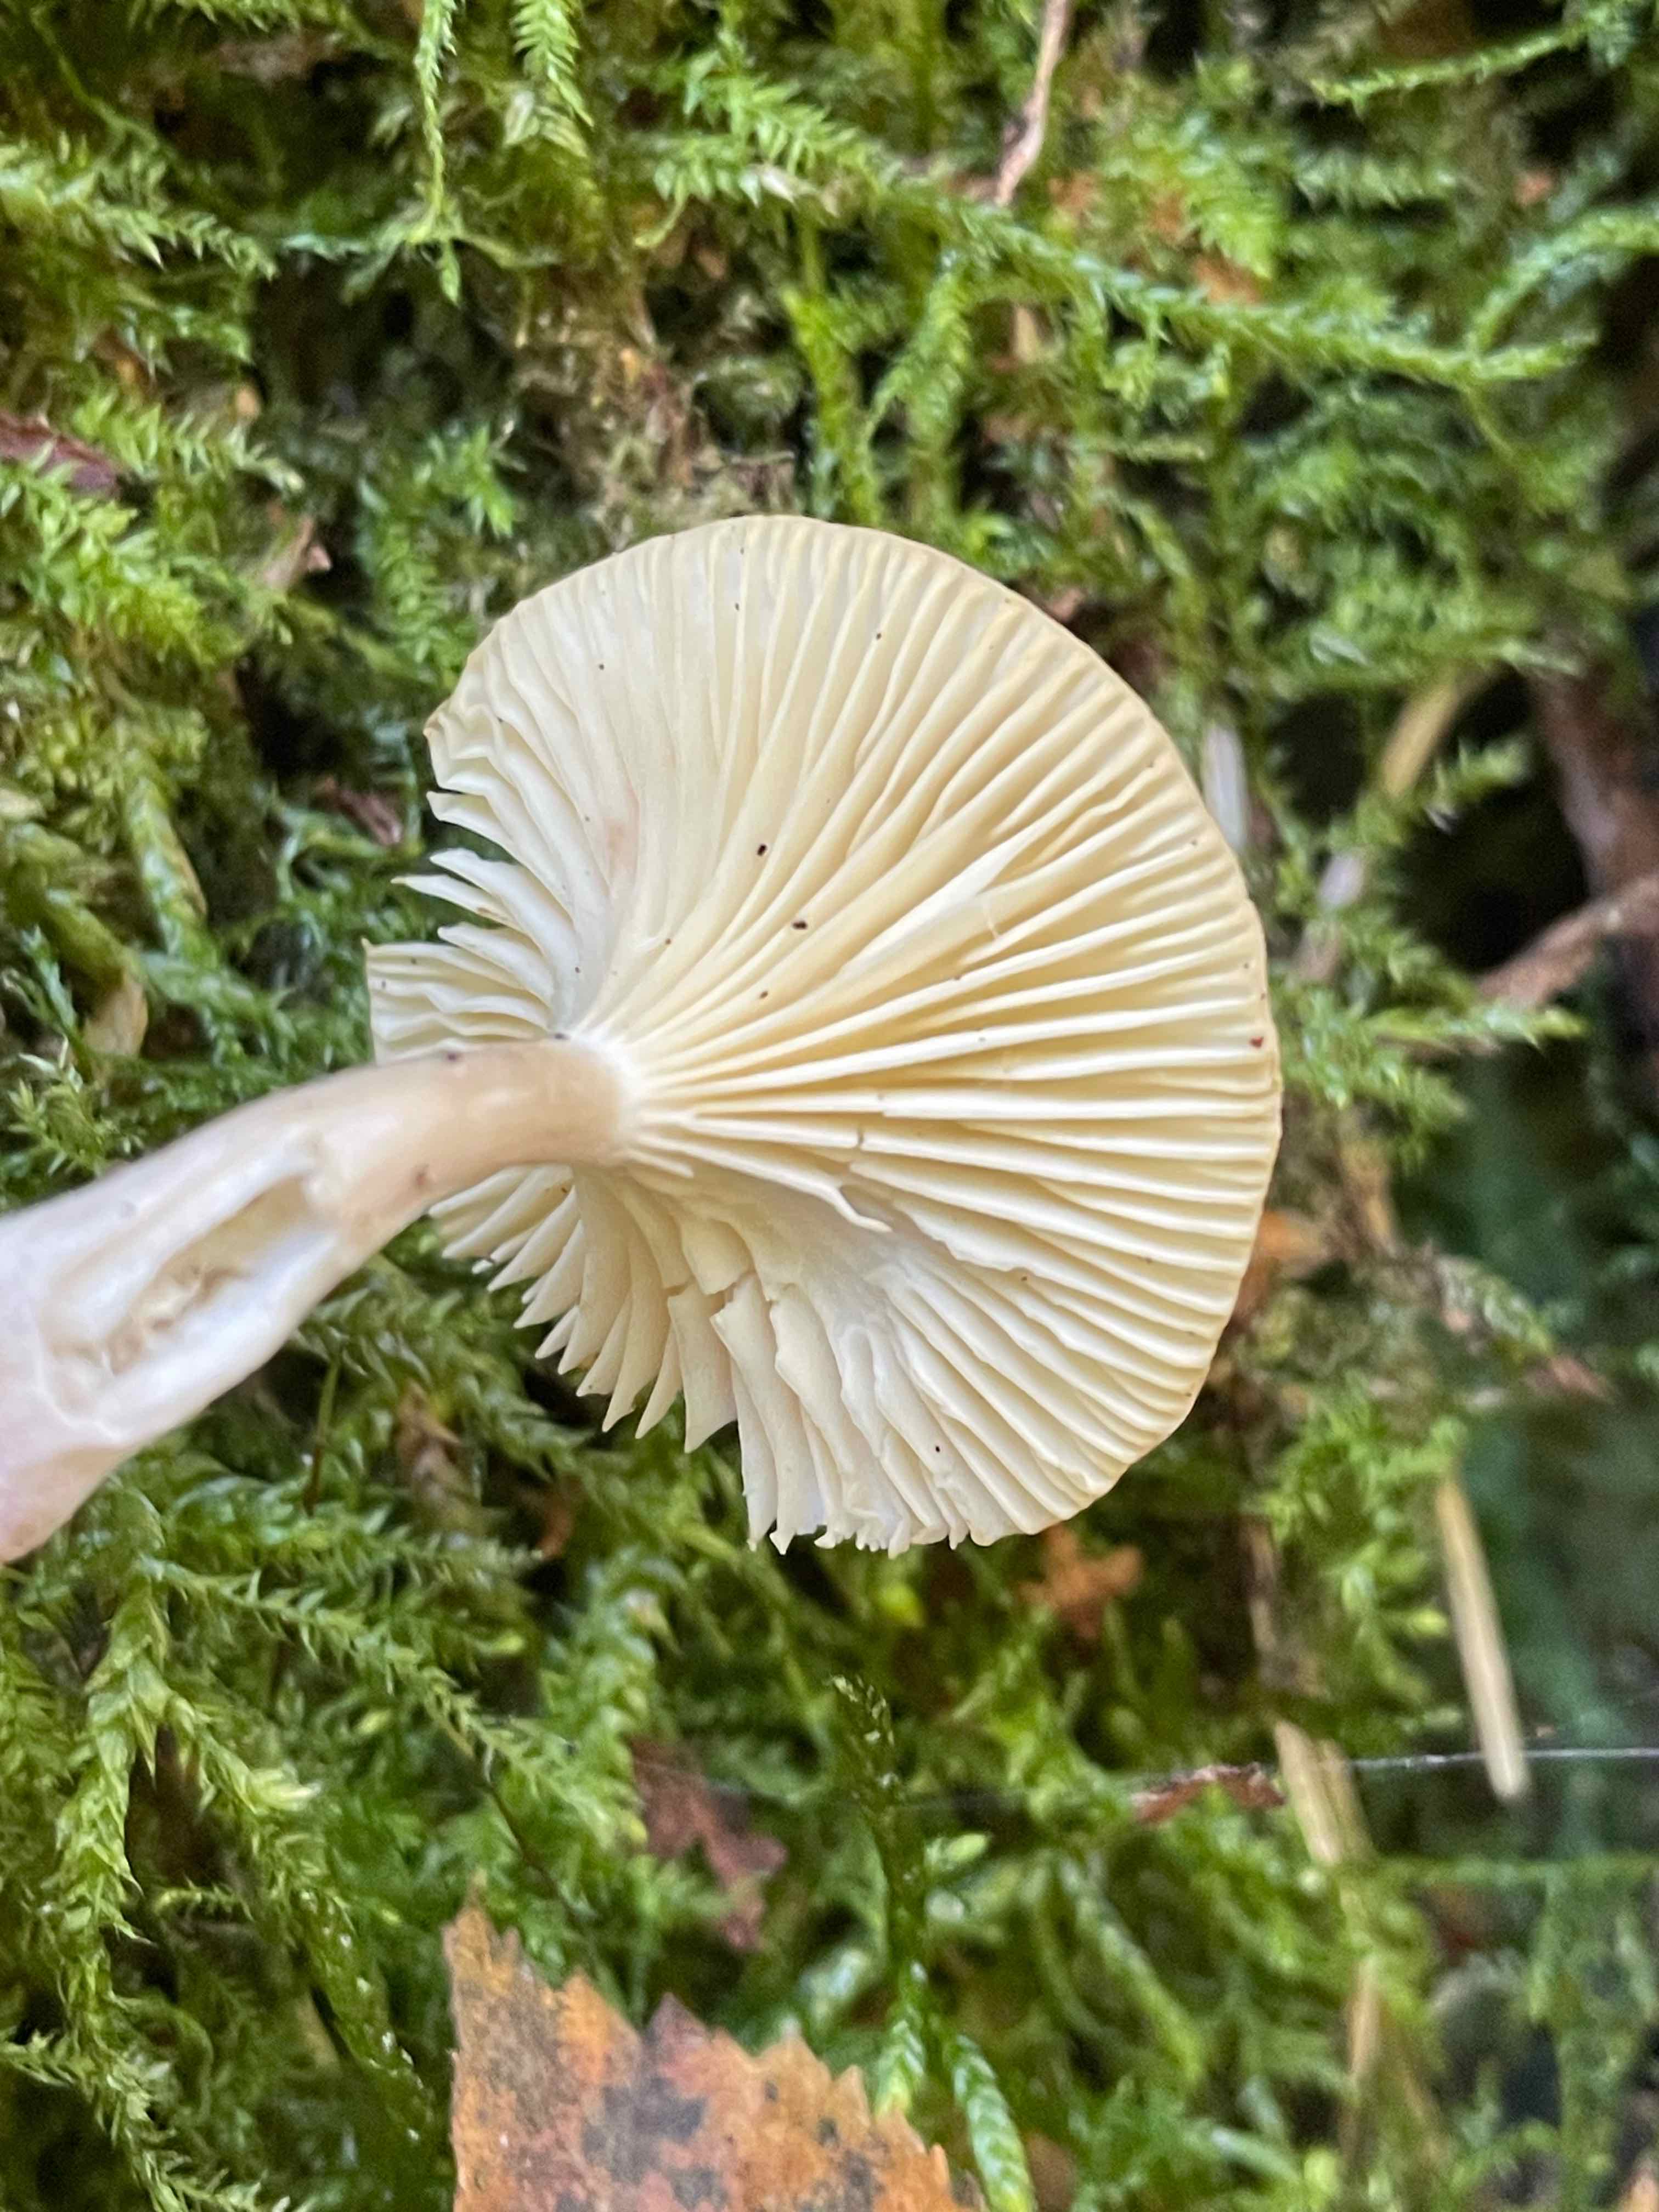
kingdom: Fungi
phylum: Basidiomycota
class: Agaricomycetes
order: Agaricales
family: Hygrophoraceae
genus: Ampulloclitocybe
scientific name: Ampulloclitocybe clavipes
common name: køllefod
